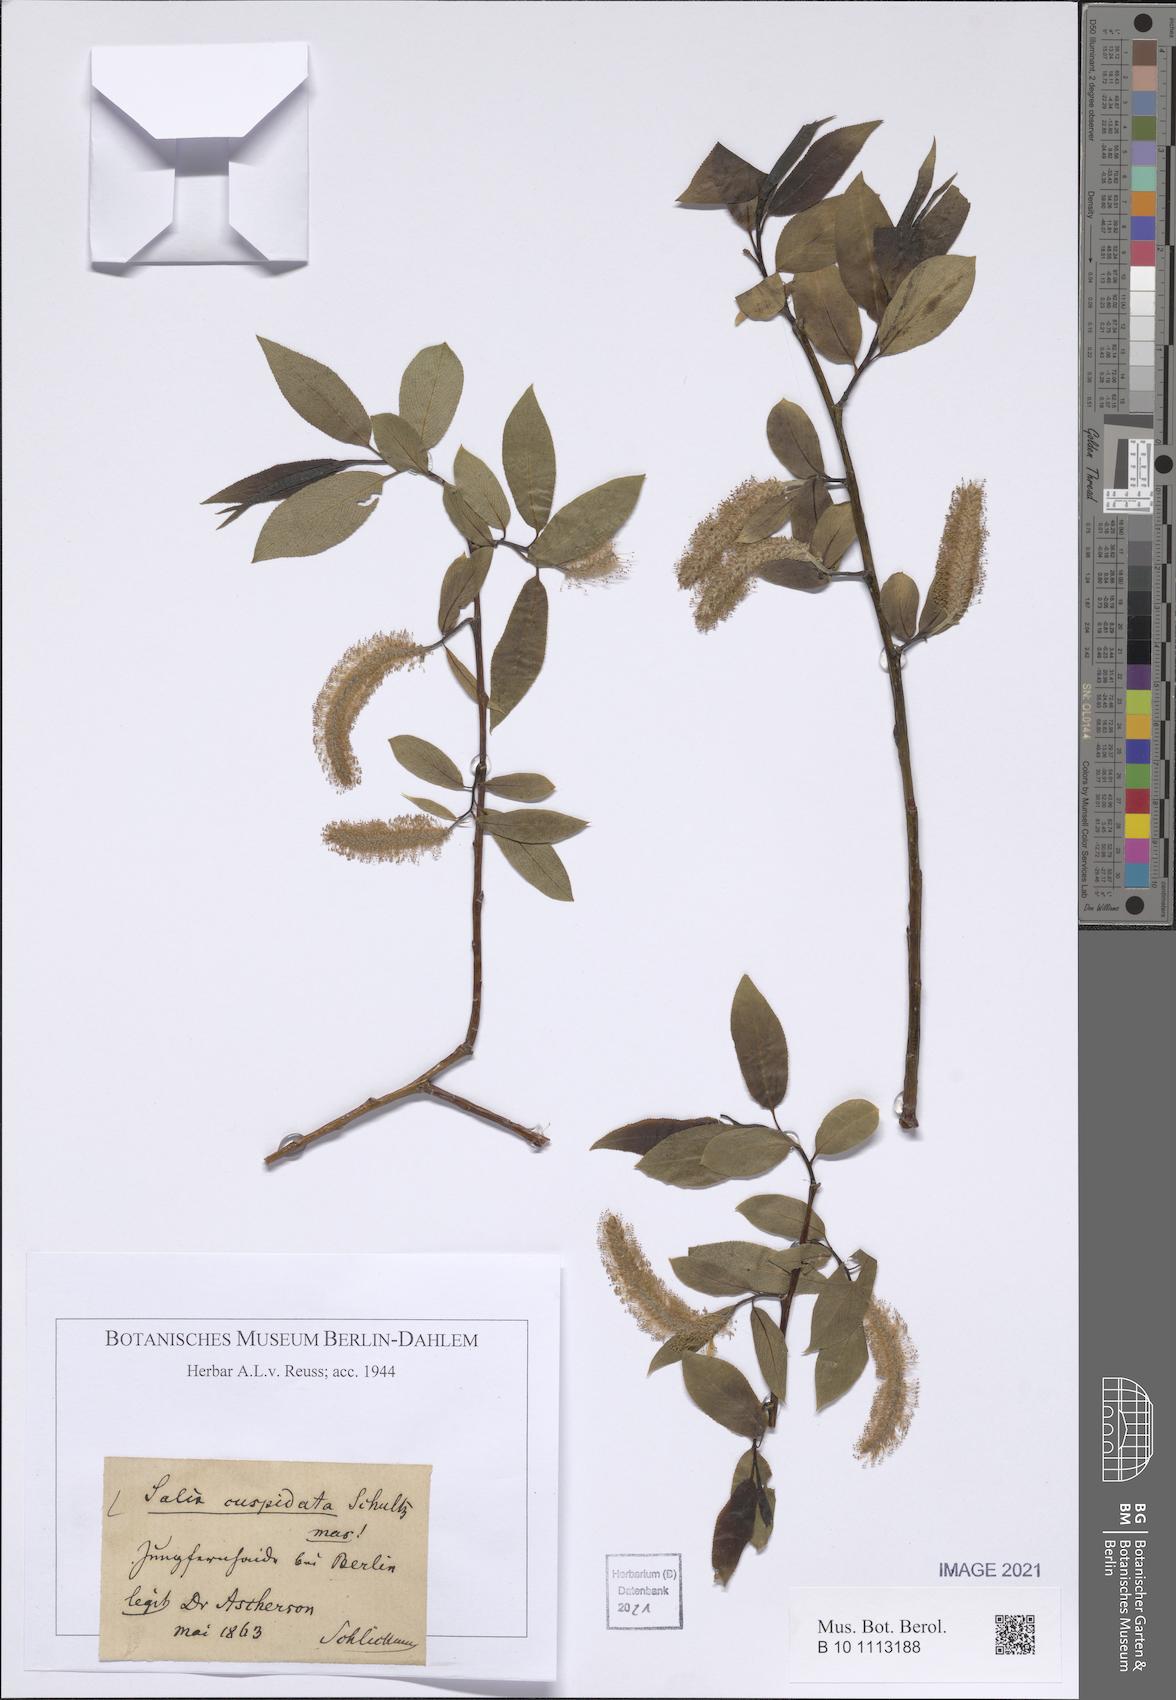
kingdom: Plantae
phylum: Tracheophyta
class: Magnoliopsida
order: Malpighiales
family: Salicaceae
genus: Salix
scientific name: Salix meyeriana
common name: Shiny-leaf willow
